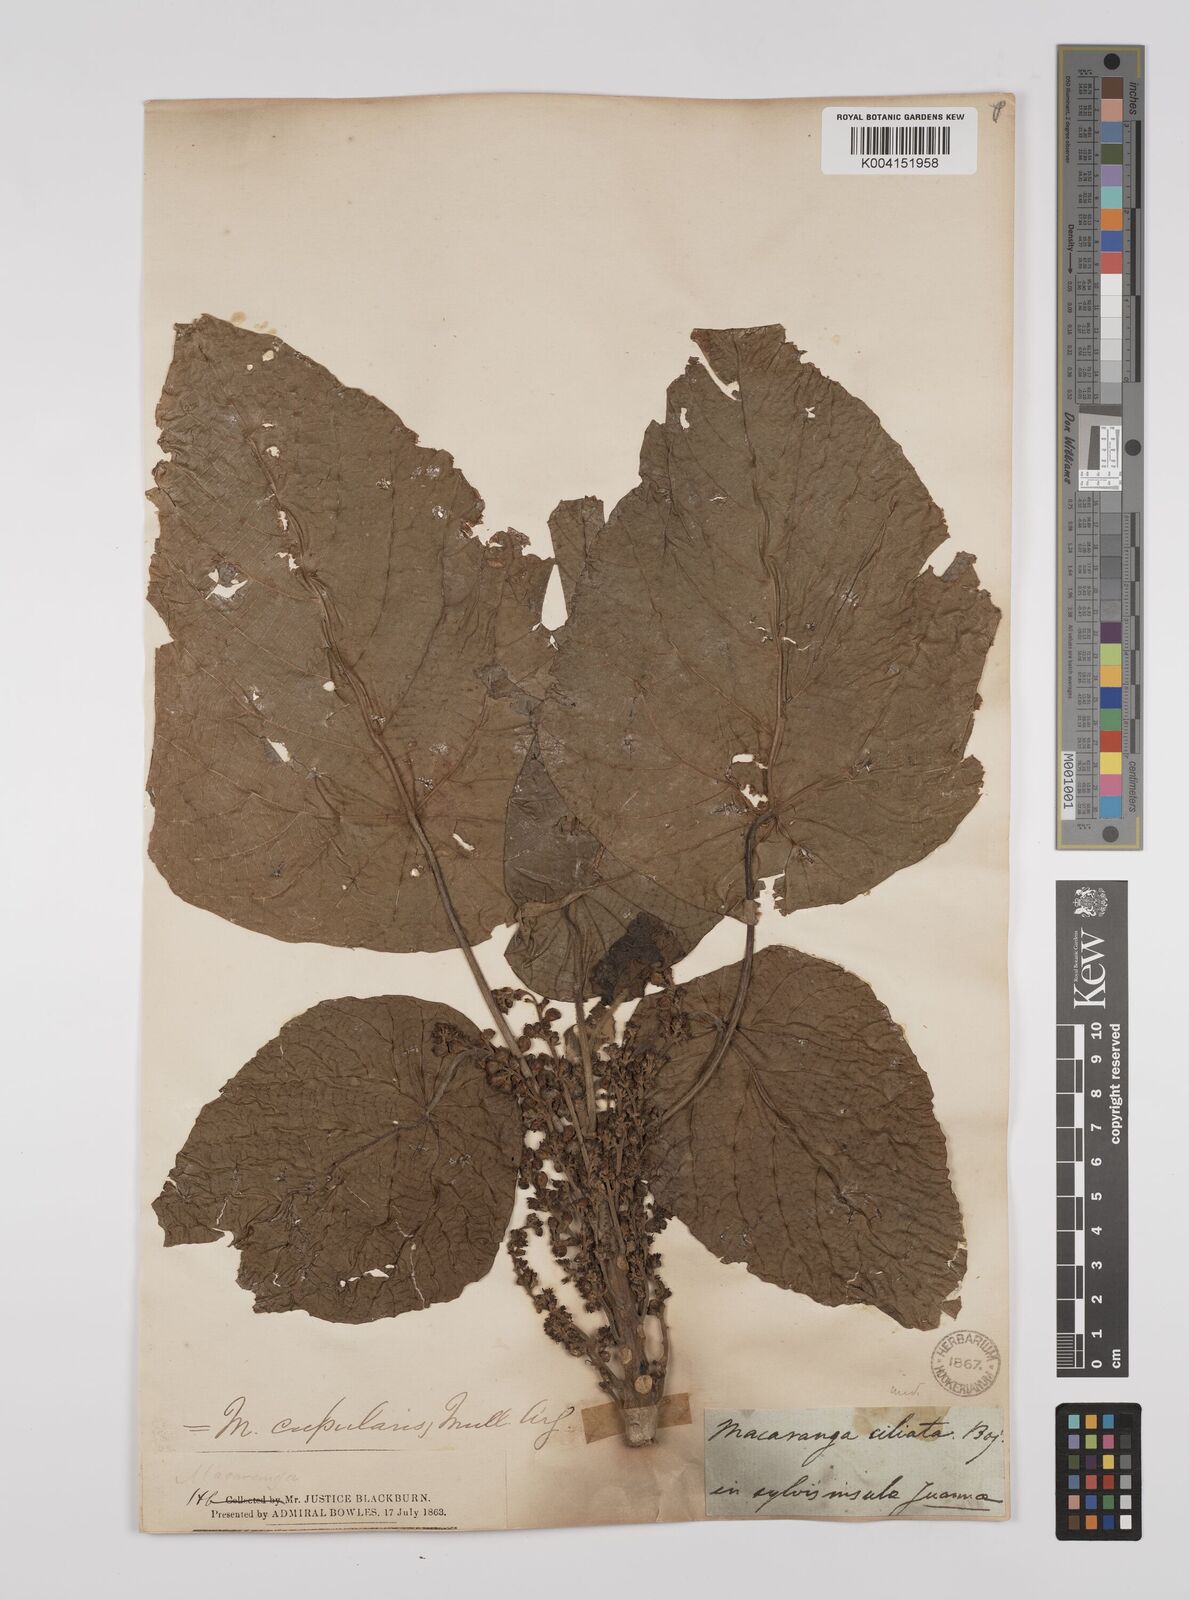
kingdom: Plantae
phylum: Tracheophyta
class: Magnoliopsida
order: Malpighiales
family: Euphorbiaceae
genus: Macaranga
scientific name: Macaranga cupularis
